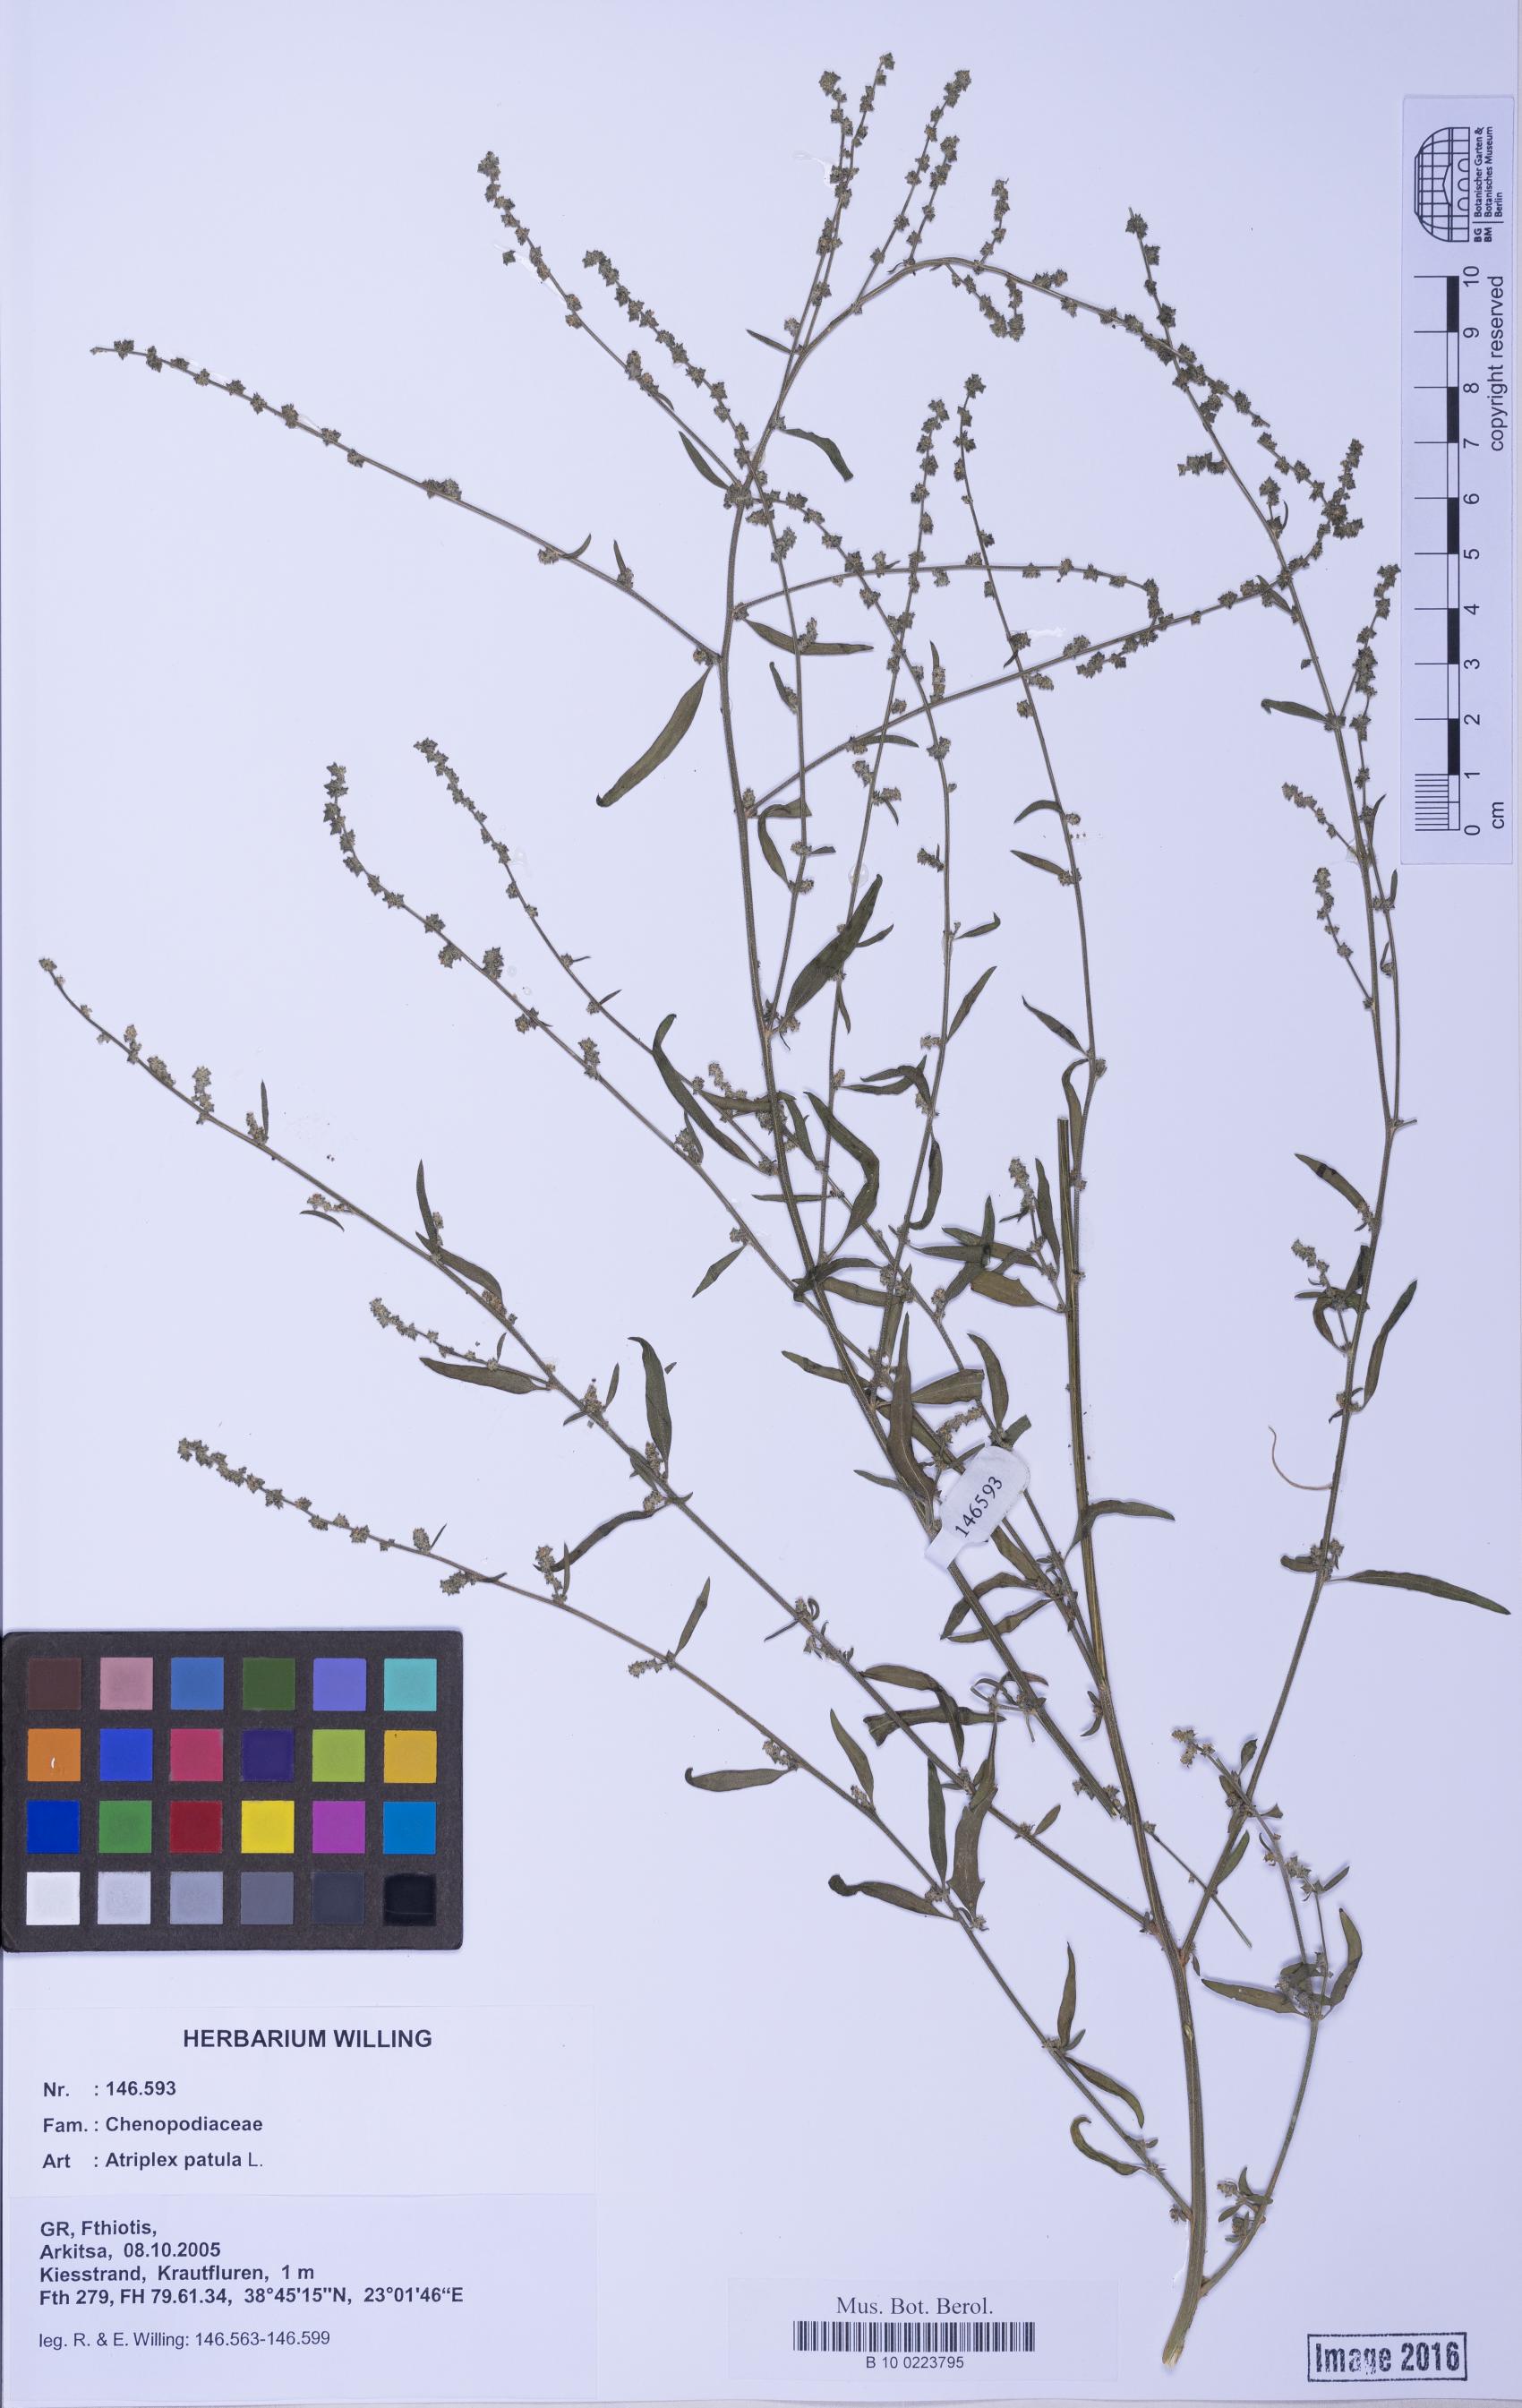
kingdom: Plantae
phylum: Tracheophyta
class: Magnoliopsida
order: Caryophyllales
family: Amaranthaceae
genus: Atriplex
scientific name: Atriplex patula
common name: Common orache
